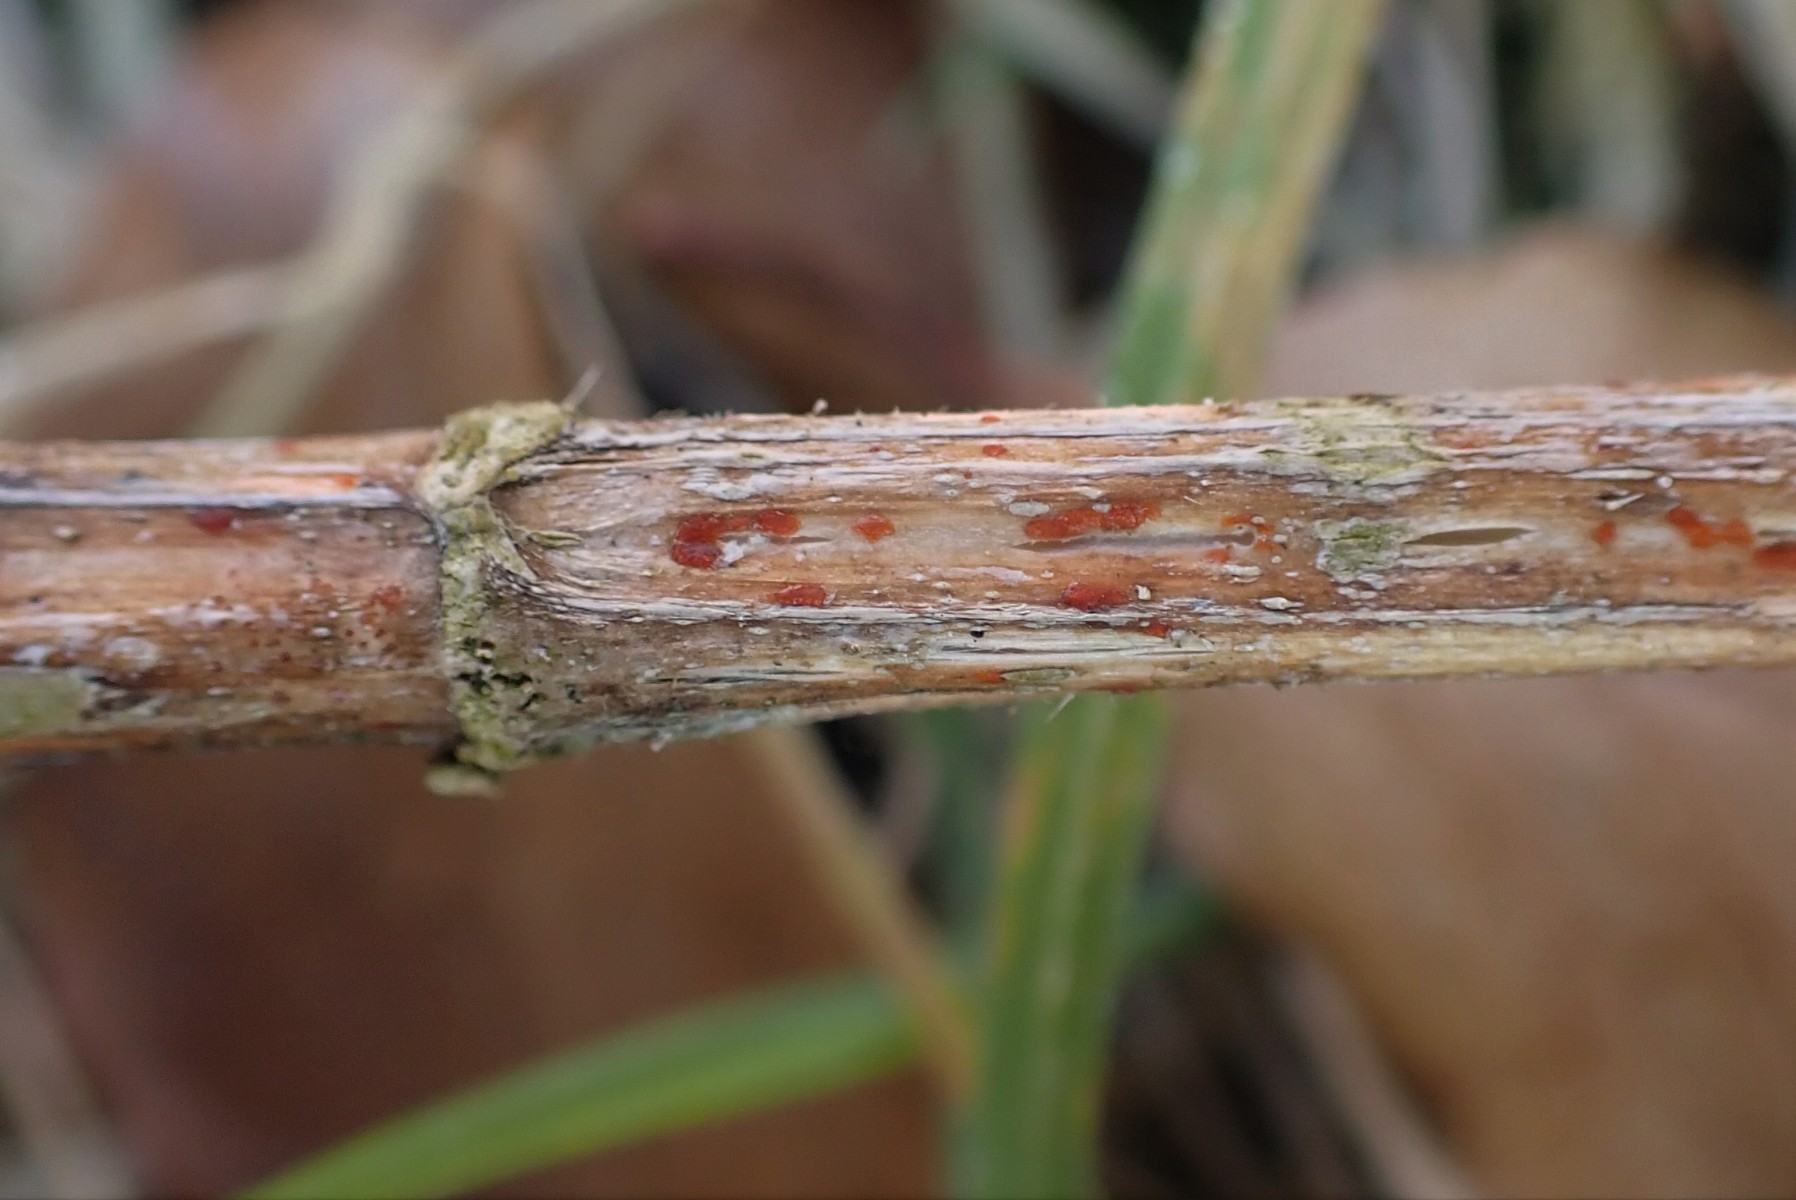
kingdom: Fungi
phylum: Ascomycota
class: Leotiomycetes
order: Helotiales
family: Calloriaceae
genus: Calloria
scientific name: Calloria urticae
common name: nælde-orangeskive
